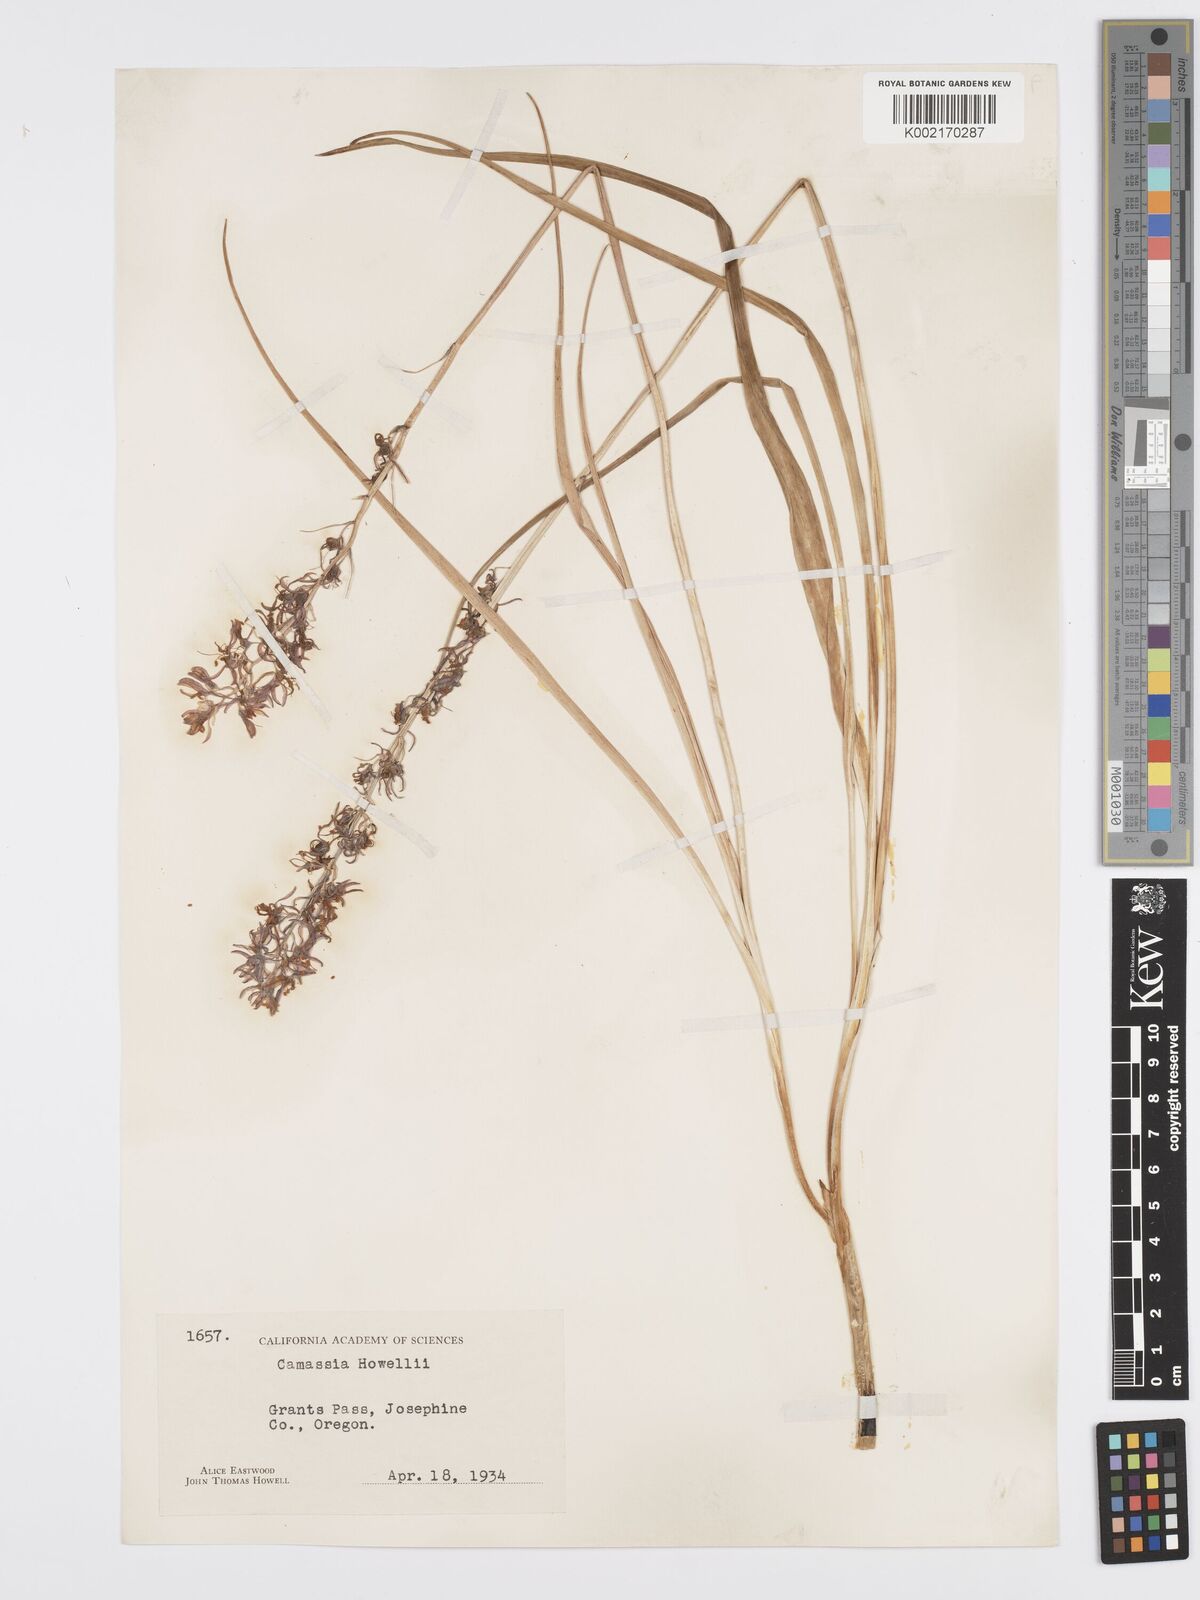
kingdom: Plantae
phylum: Tracheophyta
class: Liliopsida
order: Asparagales
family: Asparagaceae
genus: Camassia
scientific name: Camassia howellii
